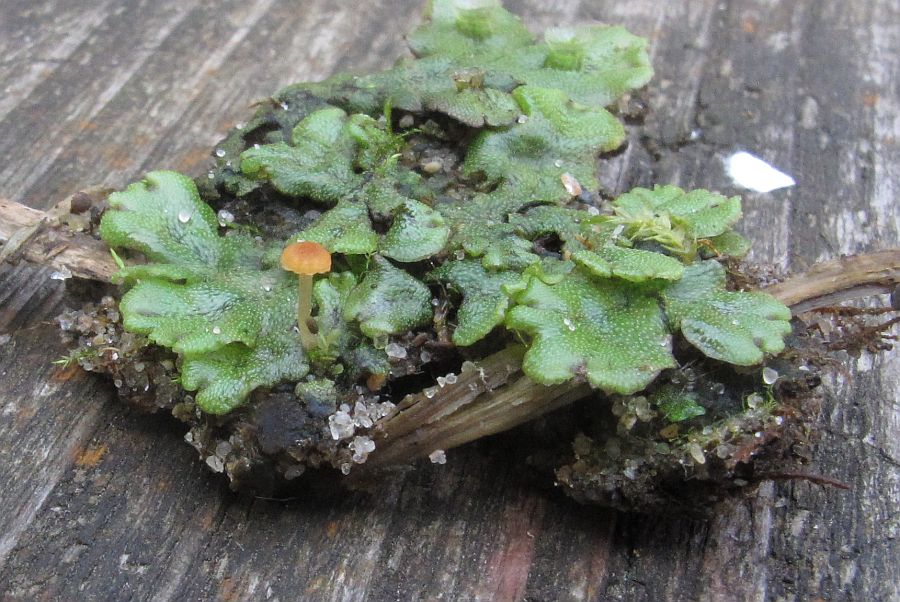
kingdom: Fungi
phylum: Basidiomycota
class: Agaricomycetes
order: Hymenochaetales
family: Rickenellaceae
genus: Loreleia
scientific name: Loreleia marchantiae
